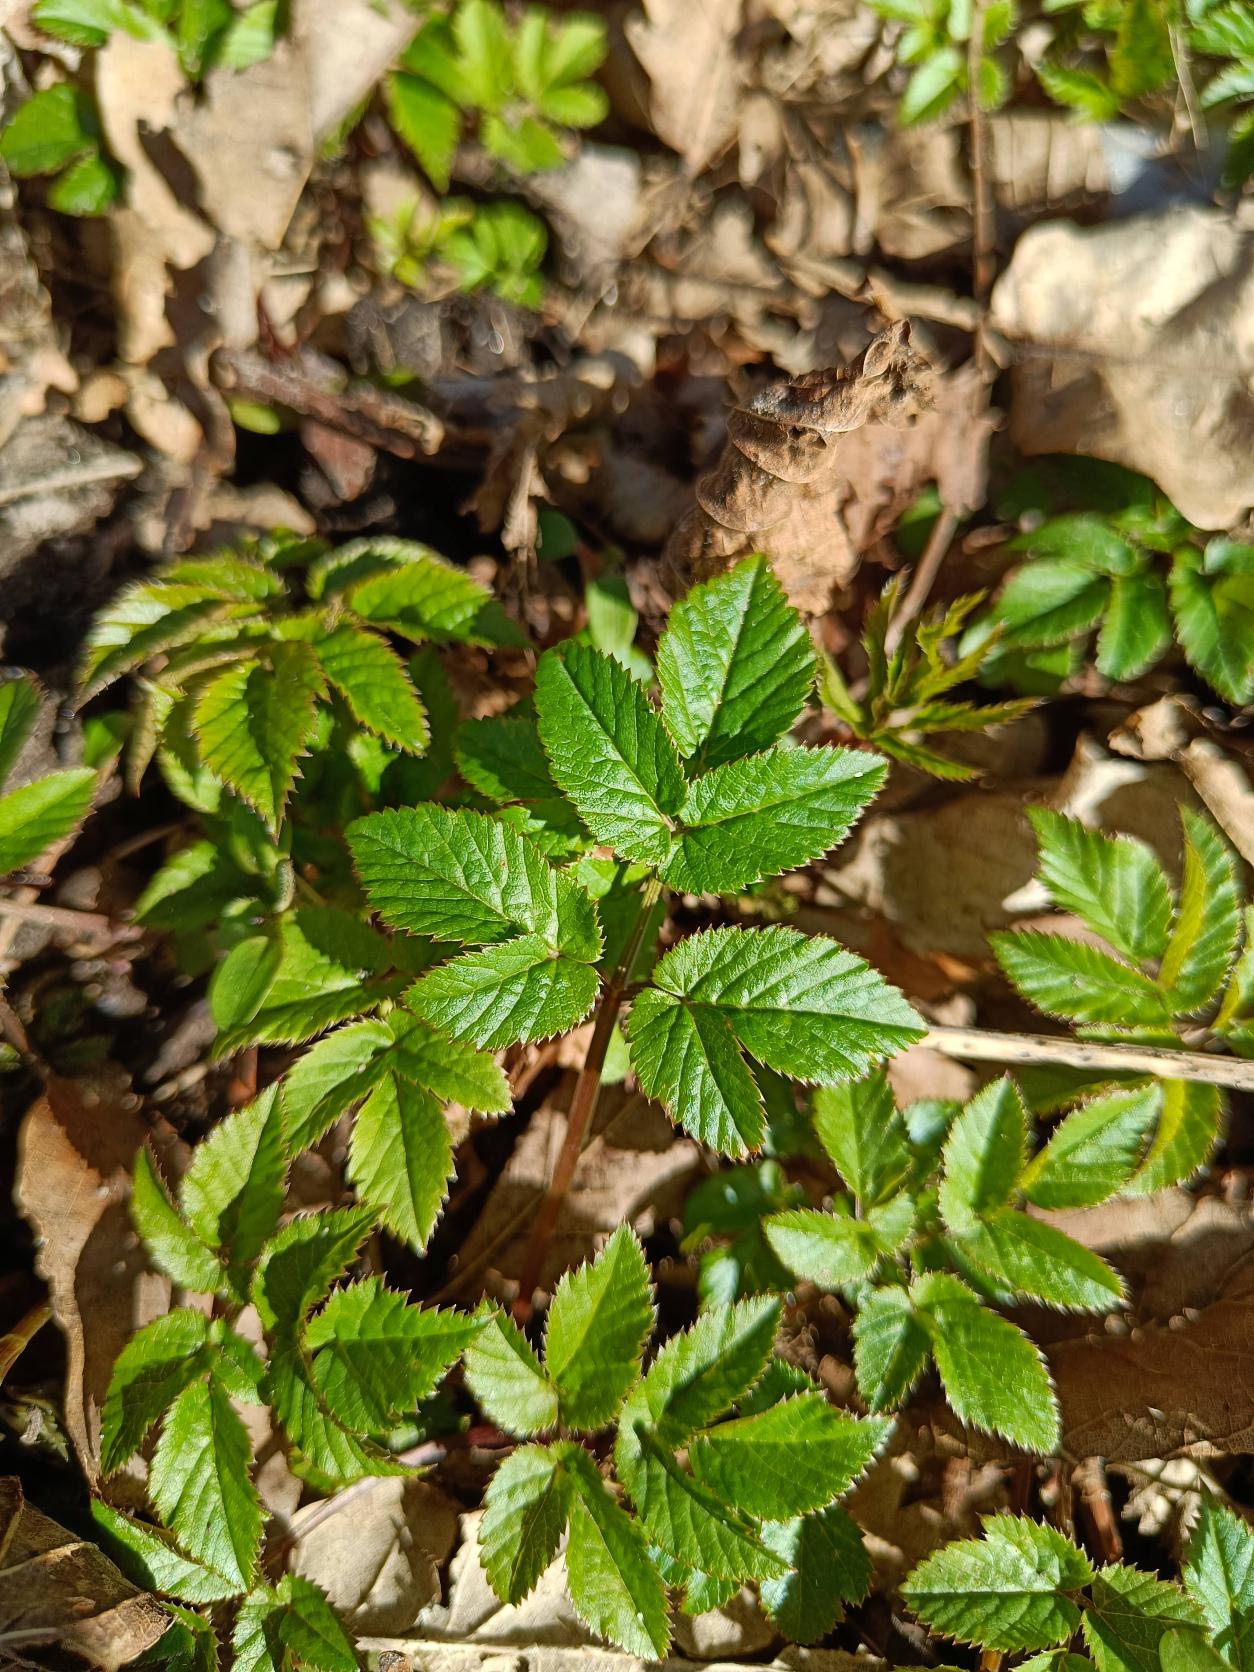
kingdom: Plantae
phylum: Tracheophyta
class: Magnoliopsida
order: Apiales
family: Apiaceae
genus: Aegopodium
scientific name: Aegopodium podagraria
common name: Skvalderkål
